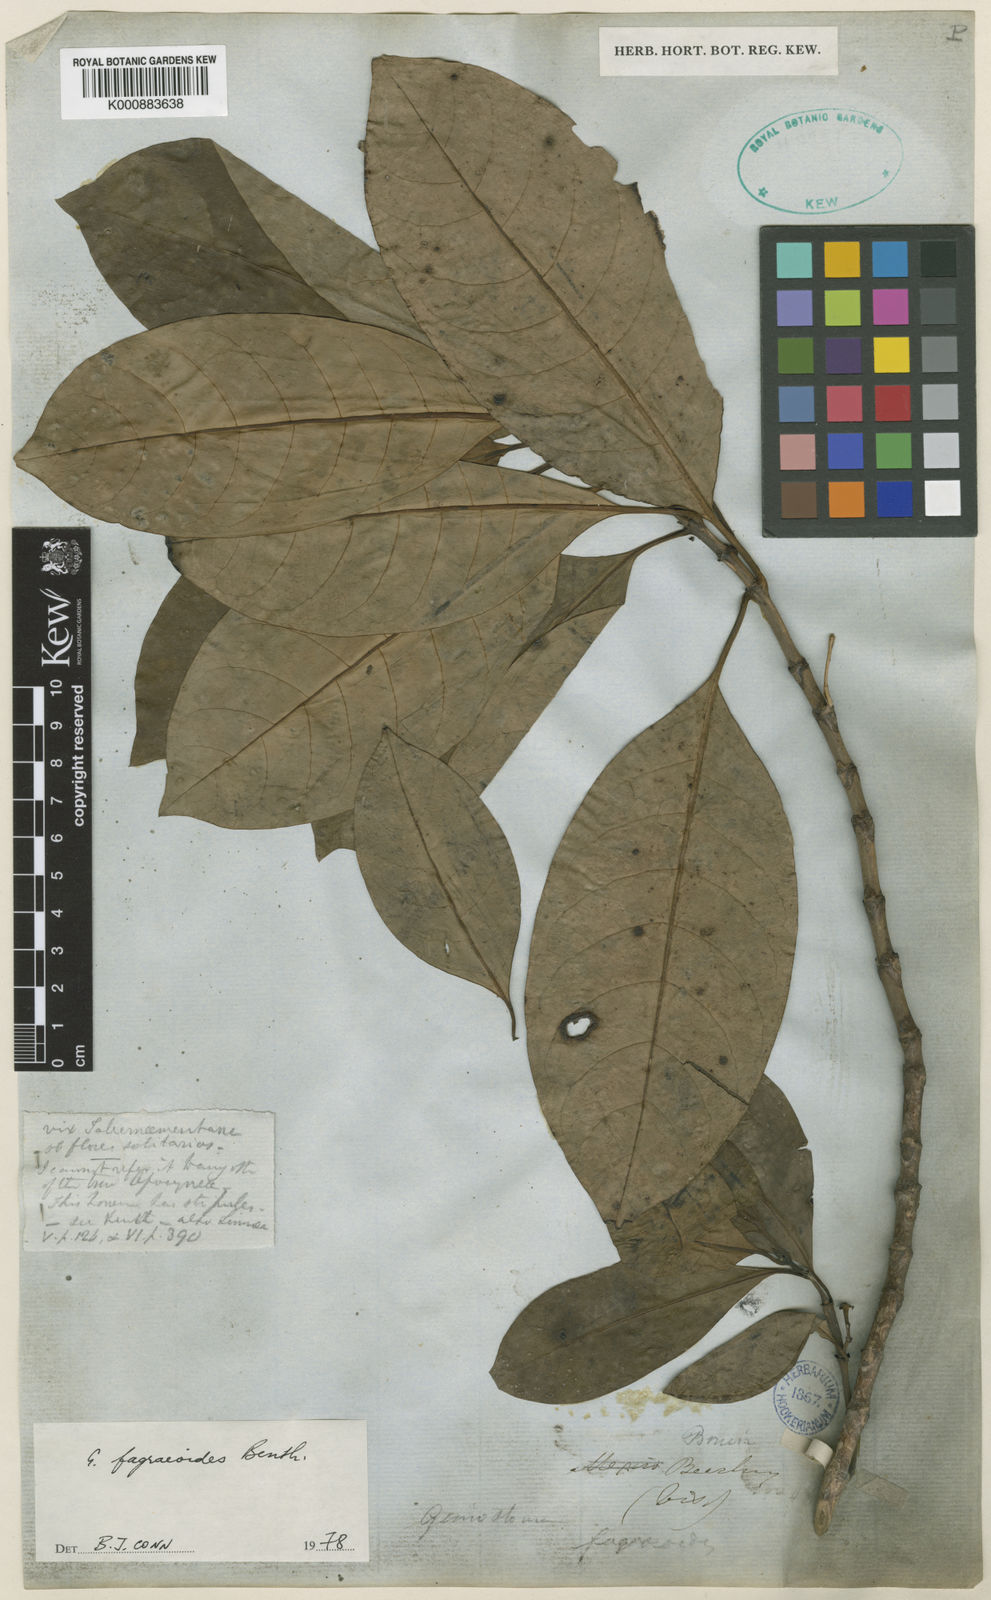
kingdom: Plantae
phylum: Tracheophyta
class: Magnoliopsida
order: Gentianales
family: Loganiaceae
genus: Geniostoma
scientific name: Geniostoma fagraeoides
